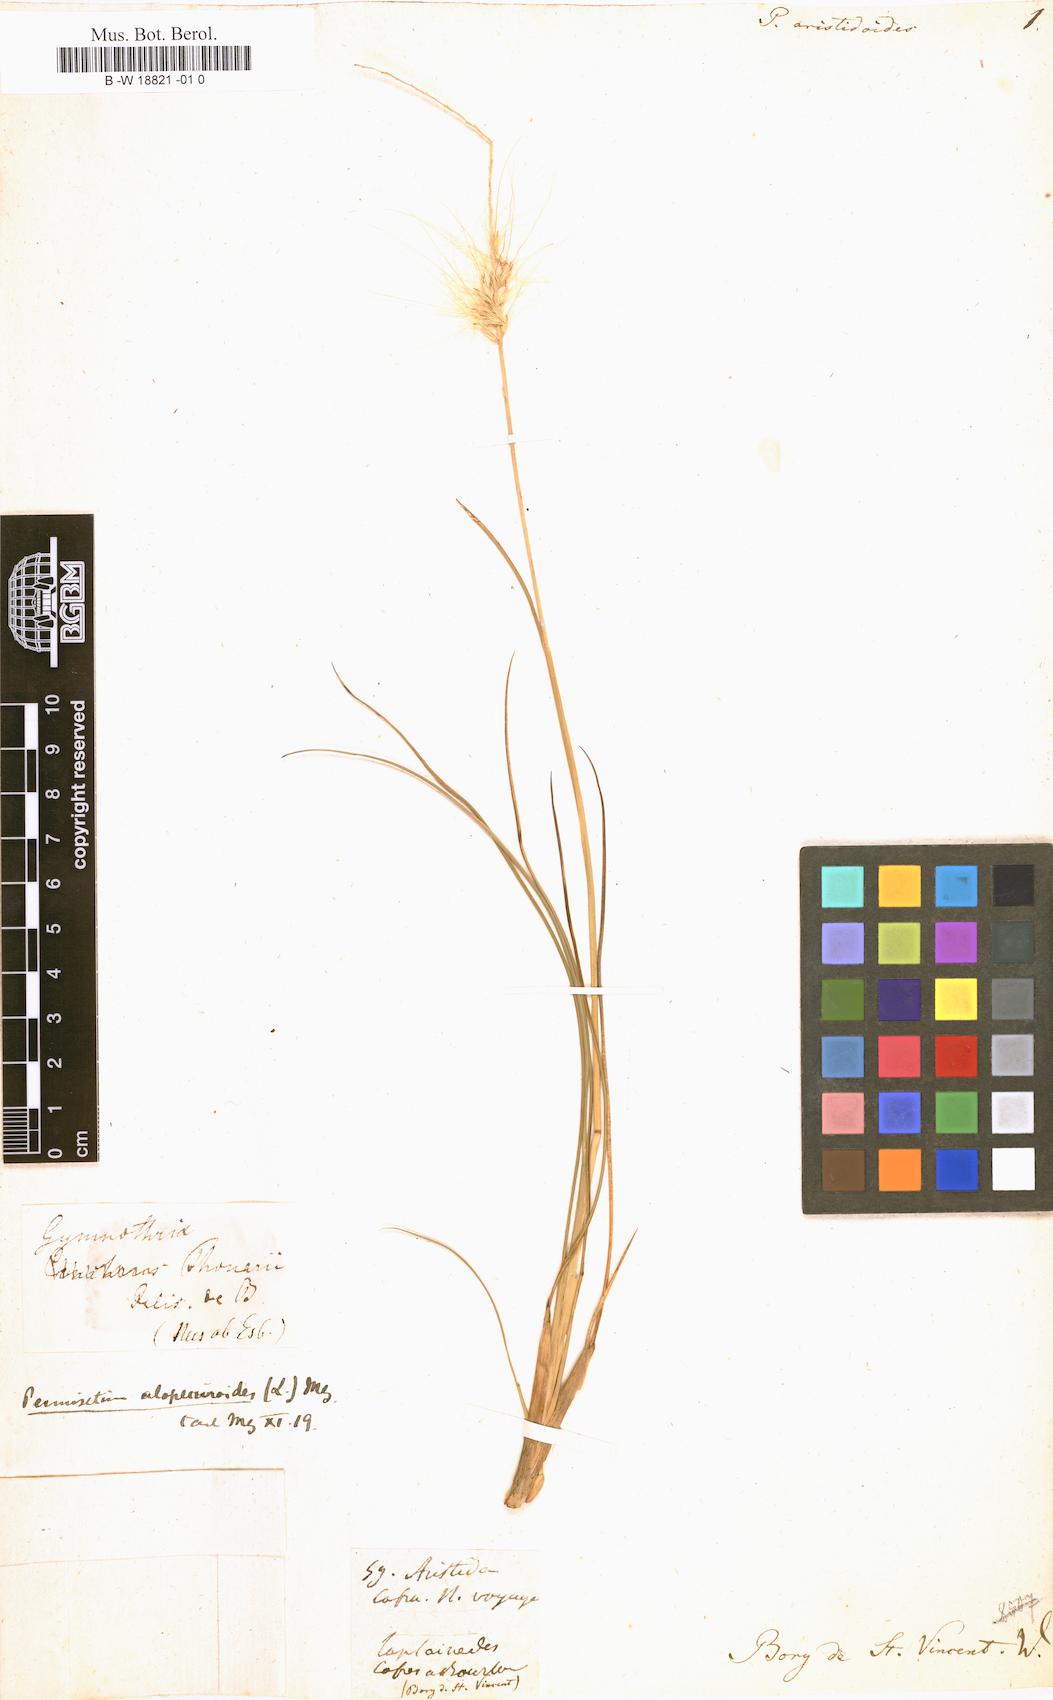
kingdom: Plantae
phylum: Tracheophyta
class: Liliopsida
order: Poales
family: Poaceae
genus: Cenchrus
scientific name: Cenchrus alopecuroides
